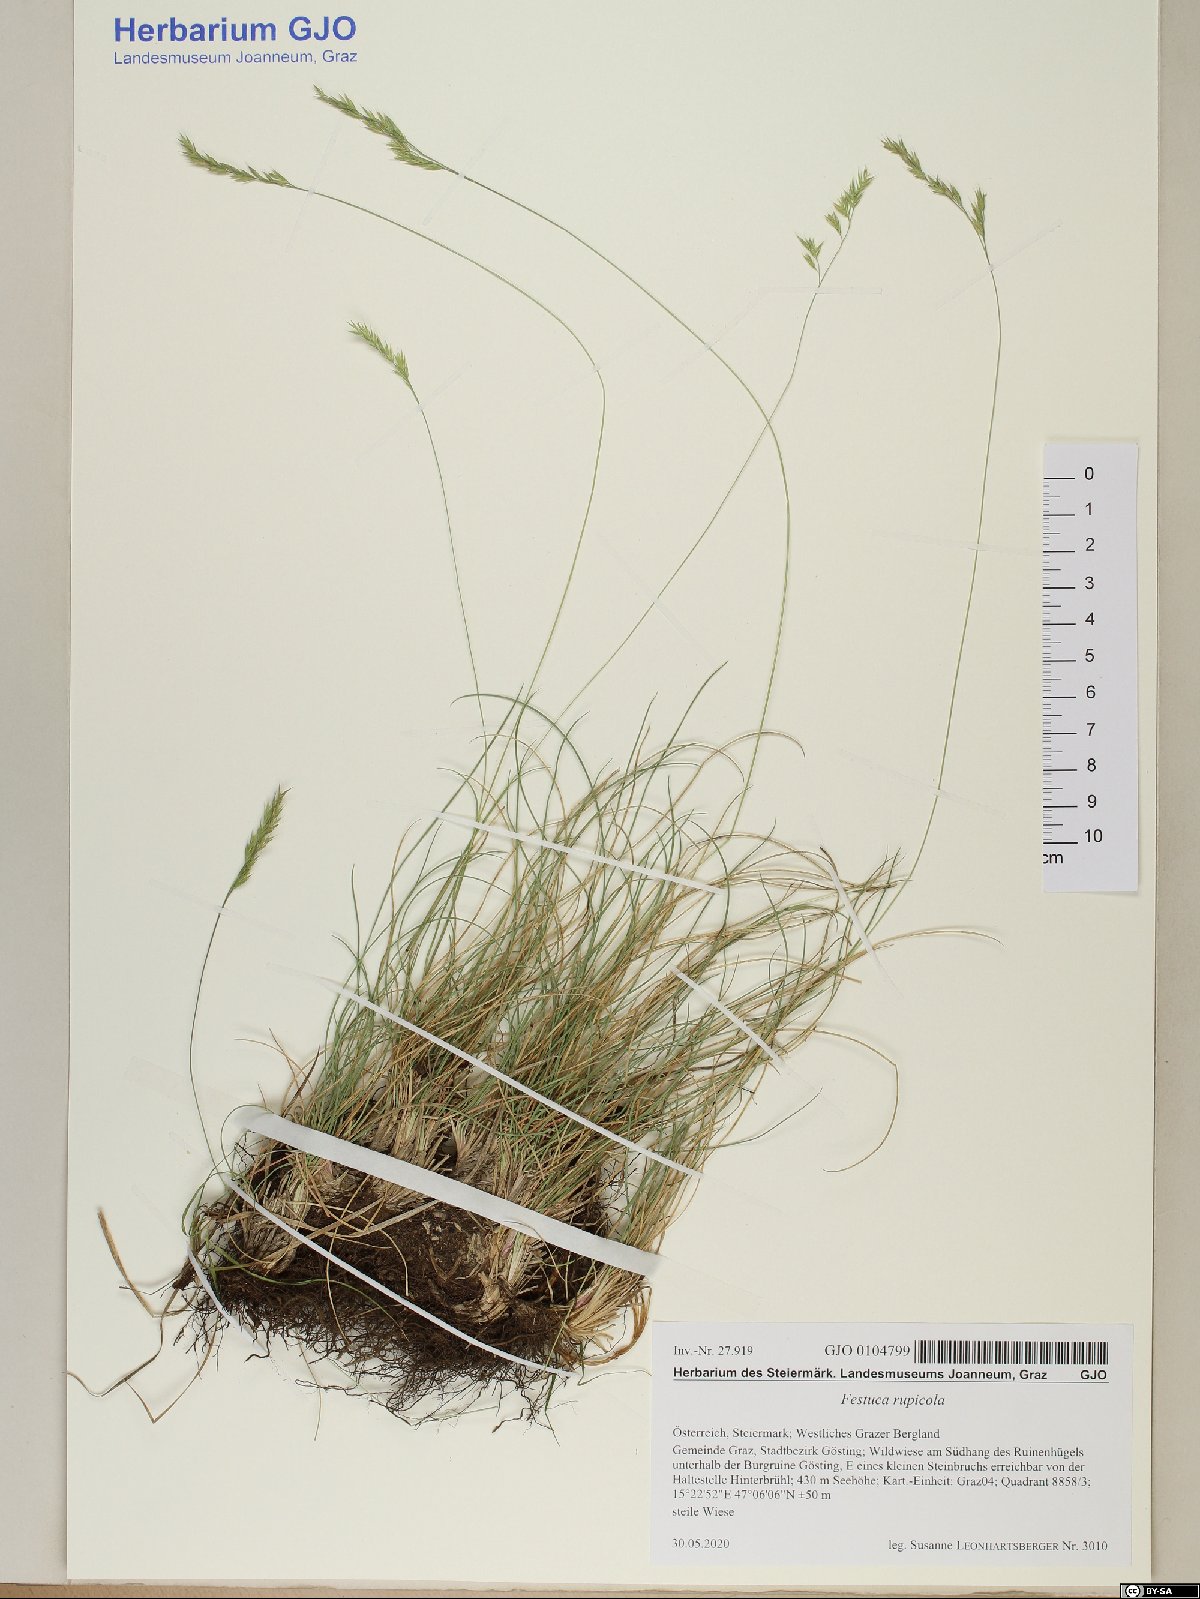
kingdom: Plantae
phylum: Tracheophyta
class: Liliopsida
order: Poales
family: Poaceae
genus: Festuca
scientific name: Festuca rupicola
